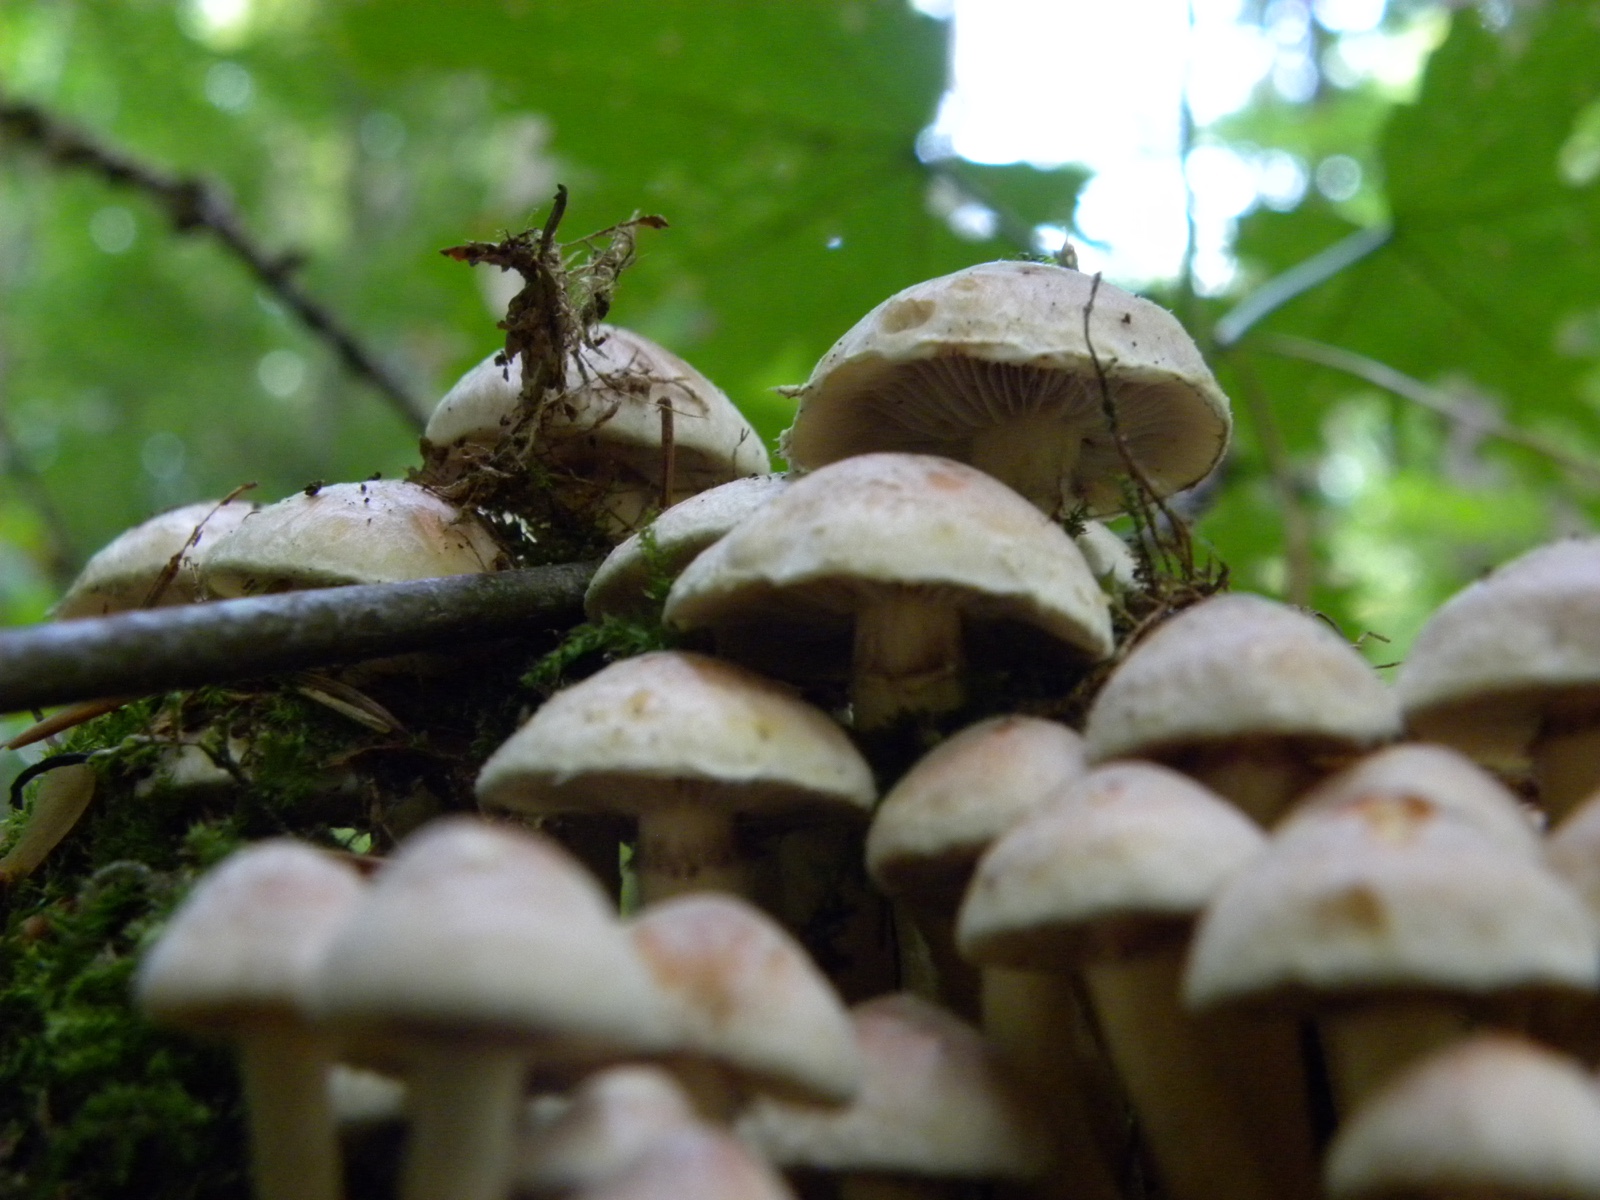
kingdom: Fungi
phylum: Basidiomycota
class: Agaricomycetes
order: Agaricales
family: Strophariaceae
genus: Hypholoma
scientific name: Hypholoma fasciculare
